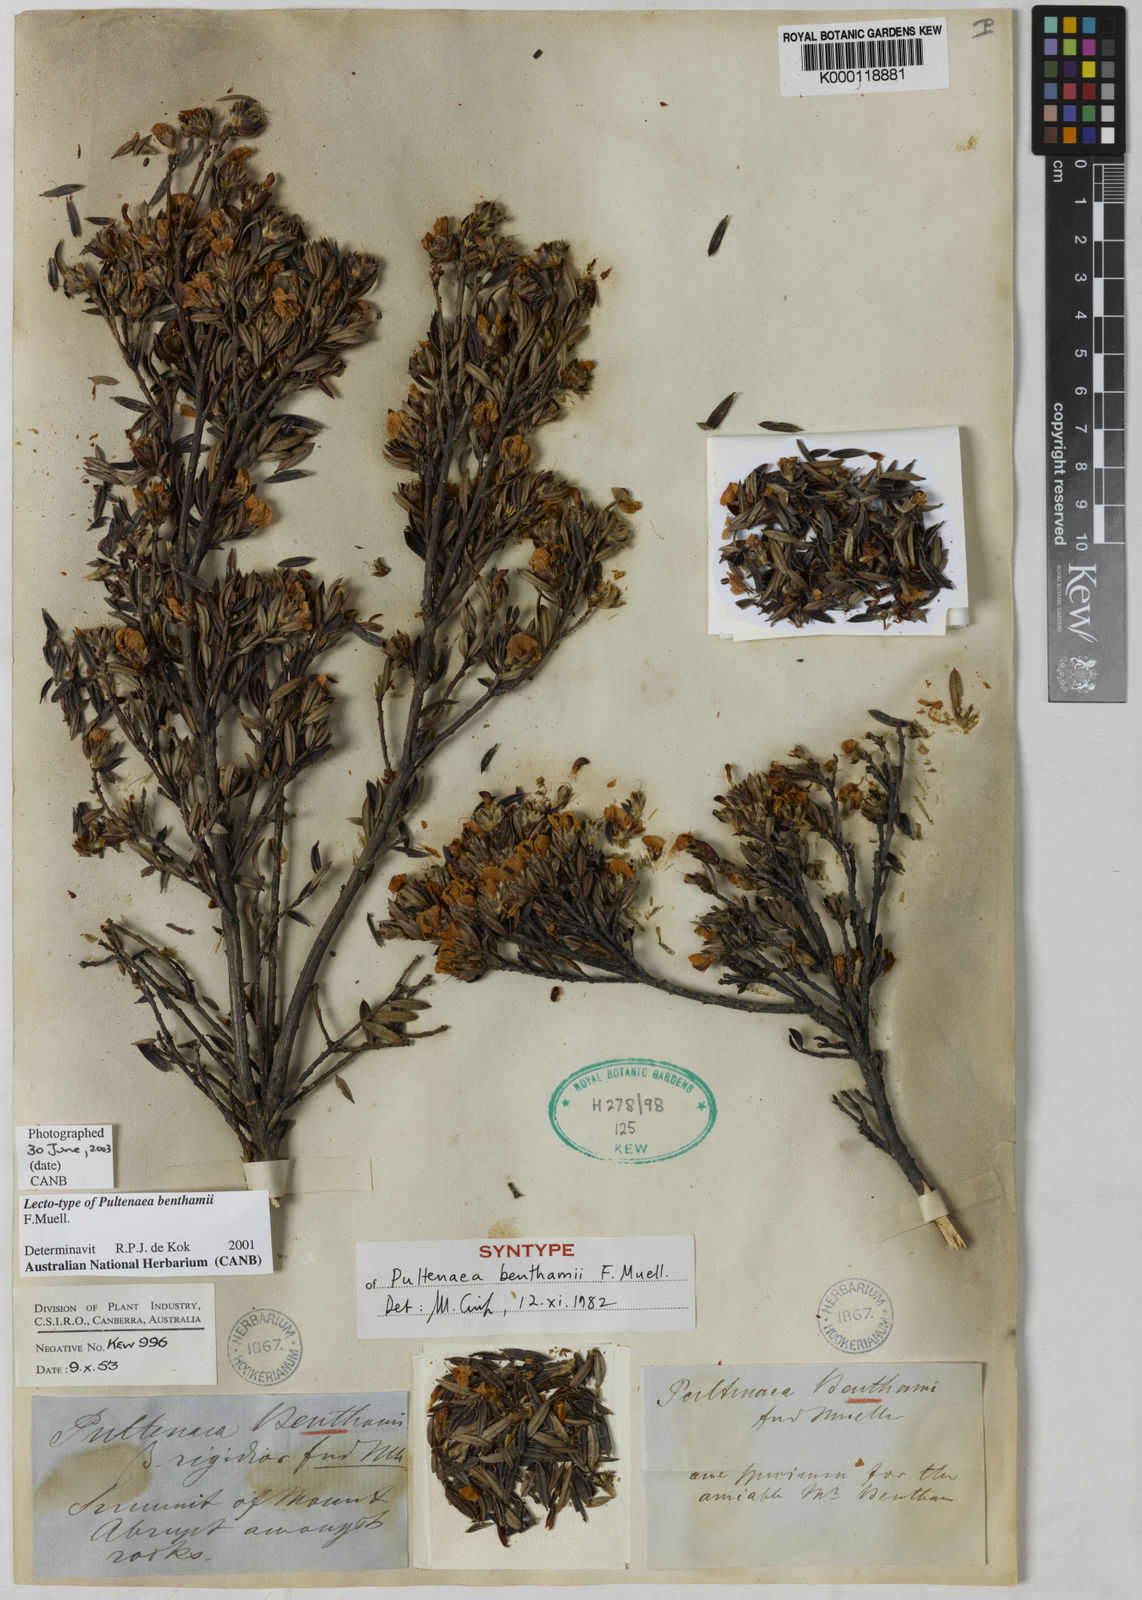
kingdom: Plantae
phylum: Tracheophyta
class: Magnoliopsida
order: Fabales
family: Fabaceae
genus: Pultenaea
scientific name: Pultenaea benthamii
